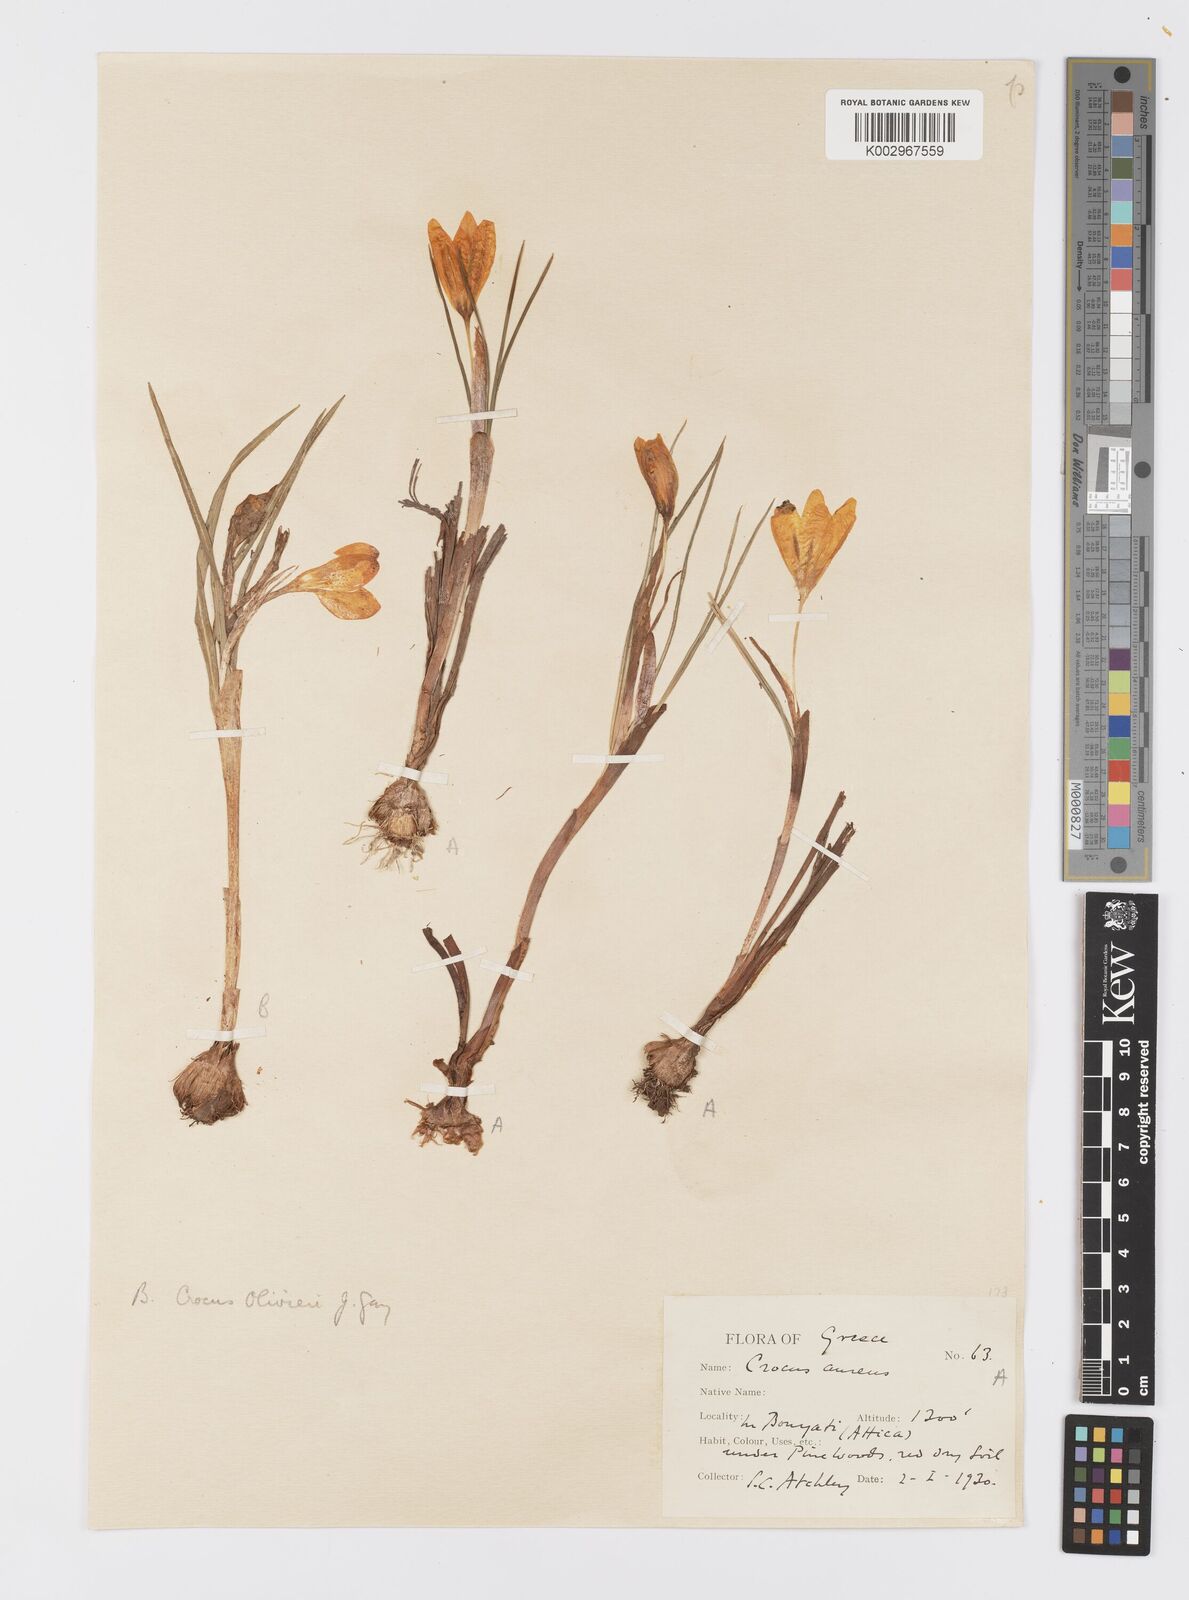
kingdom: Plantae
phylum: Tracheophyta
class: Liliopsida
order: Asparagales
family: Iridaceae
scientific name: Iridaceae
